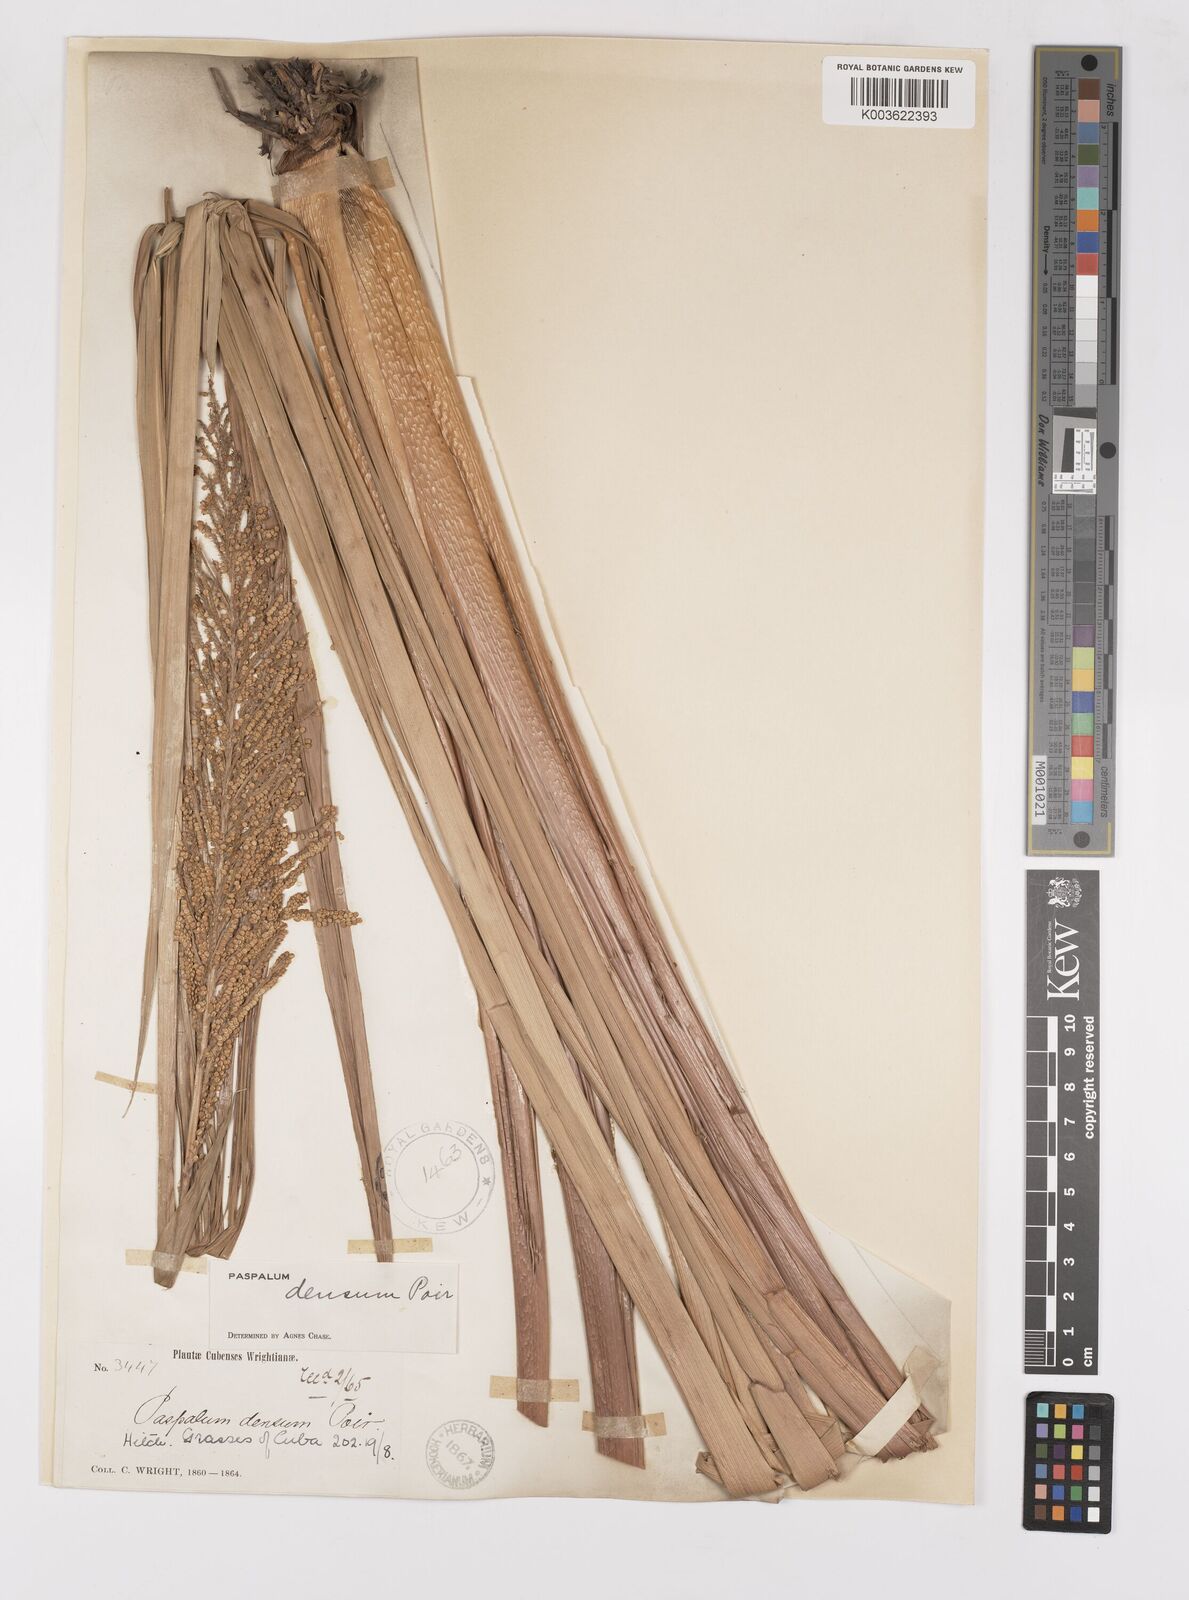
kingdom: Plantae
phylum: Tracheophyta
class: Liliopsida
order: Poales
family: Poaceae
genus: Paspalum
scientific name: Paspalum densum
